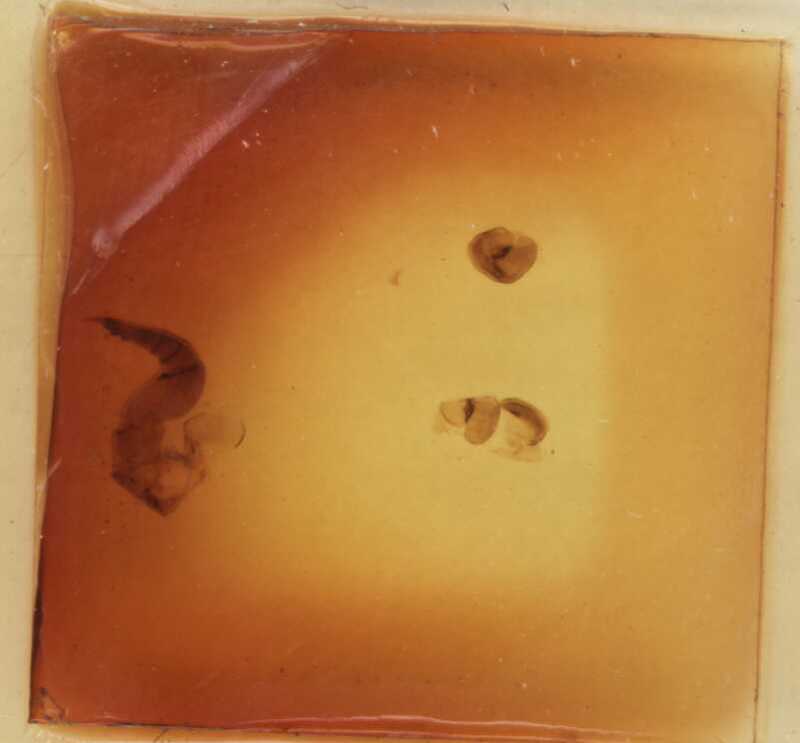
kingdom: Animalia
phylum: Arthropoda
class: Diplopoda
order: Sphaerotheriida
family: Procyliosomatidae
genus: Cyliosomella
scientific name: Cyliosomella andersoni
